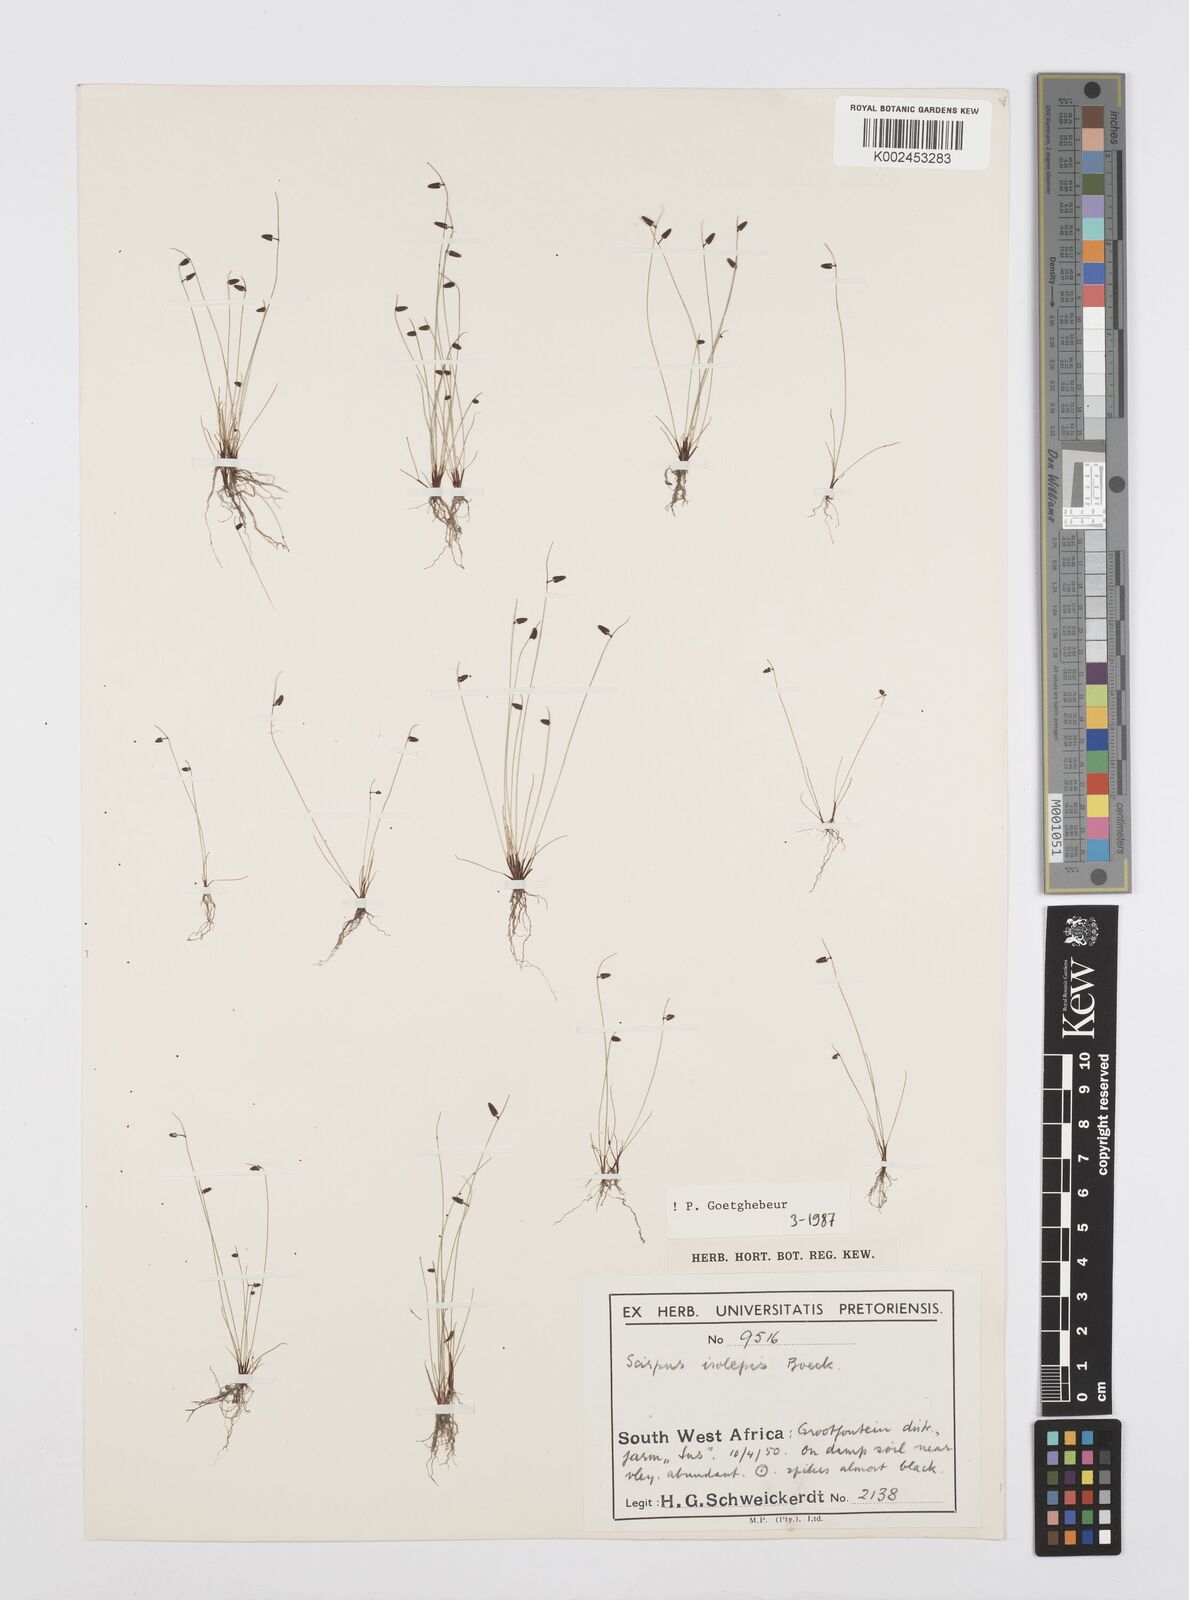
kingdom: Plantae
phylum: Tracheophyta
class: Liliopsida
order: Poales
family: Cyperaceae
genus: Cyperus
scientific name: Cyperus hemisphaericus
